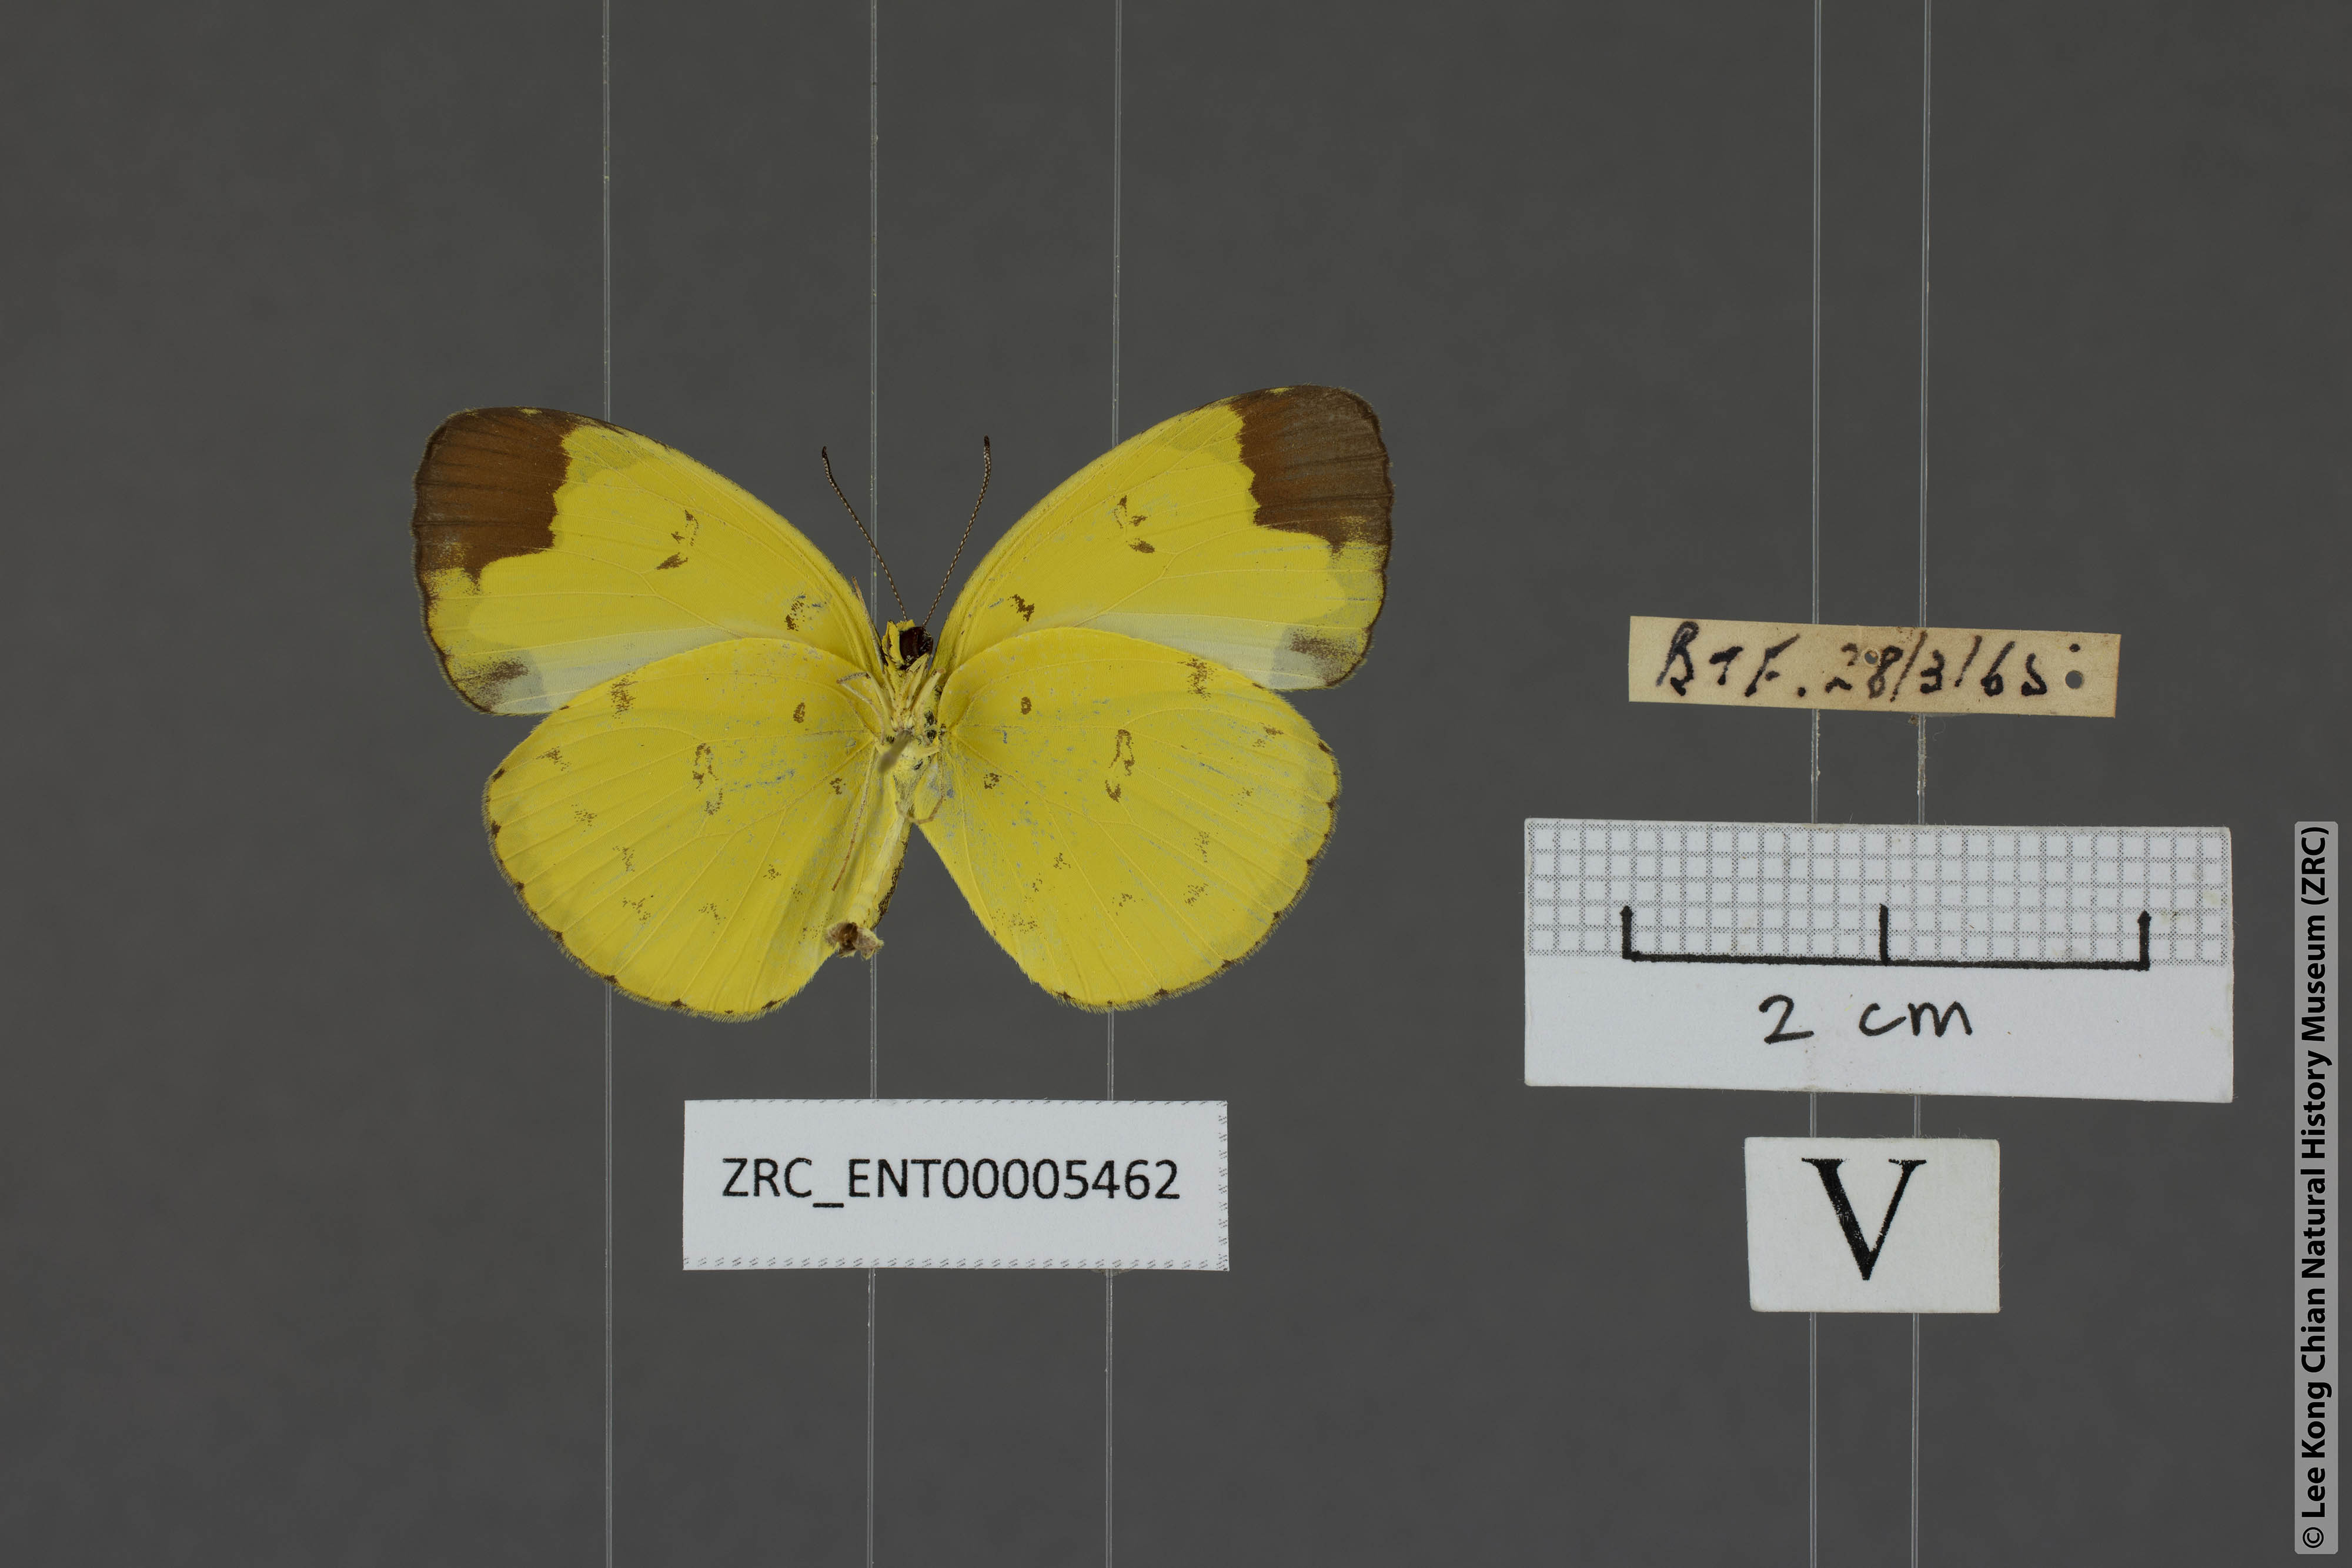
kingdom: Animalia
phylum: Arthropoda
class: Insecta
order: Lepidoptera
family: Pieridae
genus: Eurema
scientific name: Eurema sari
